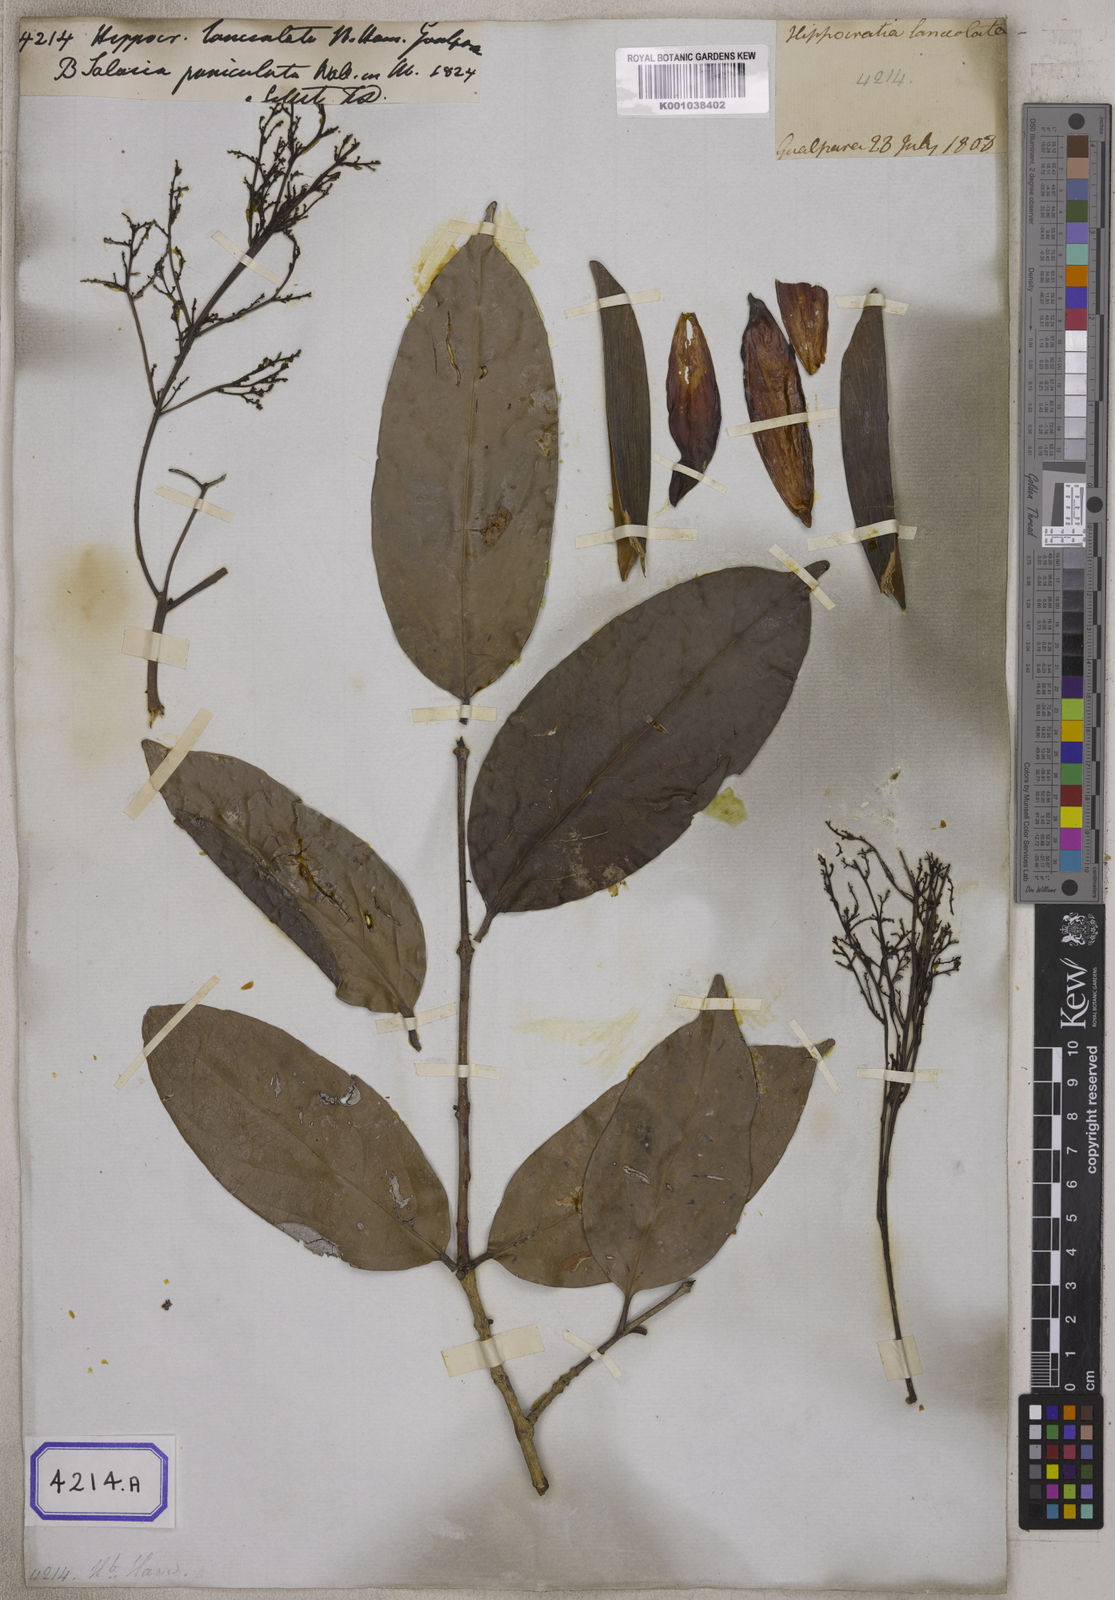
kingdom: Plantae
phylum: Tracheophyta
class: Magnoliopsida
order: Celastrales
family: Celastraceae
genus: Arnicratea
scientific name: Arnicratea grahamii
